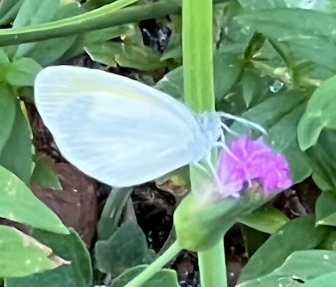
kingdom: Animalia
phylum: Arthropoda
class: Insecta
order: Lepidoptera
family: Pieridae
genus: Eurema
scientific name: Eurema daira
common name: Barred Yellow
